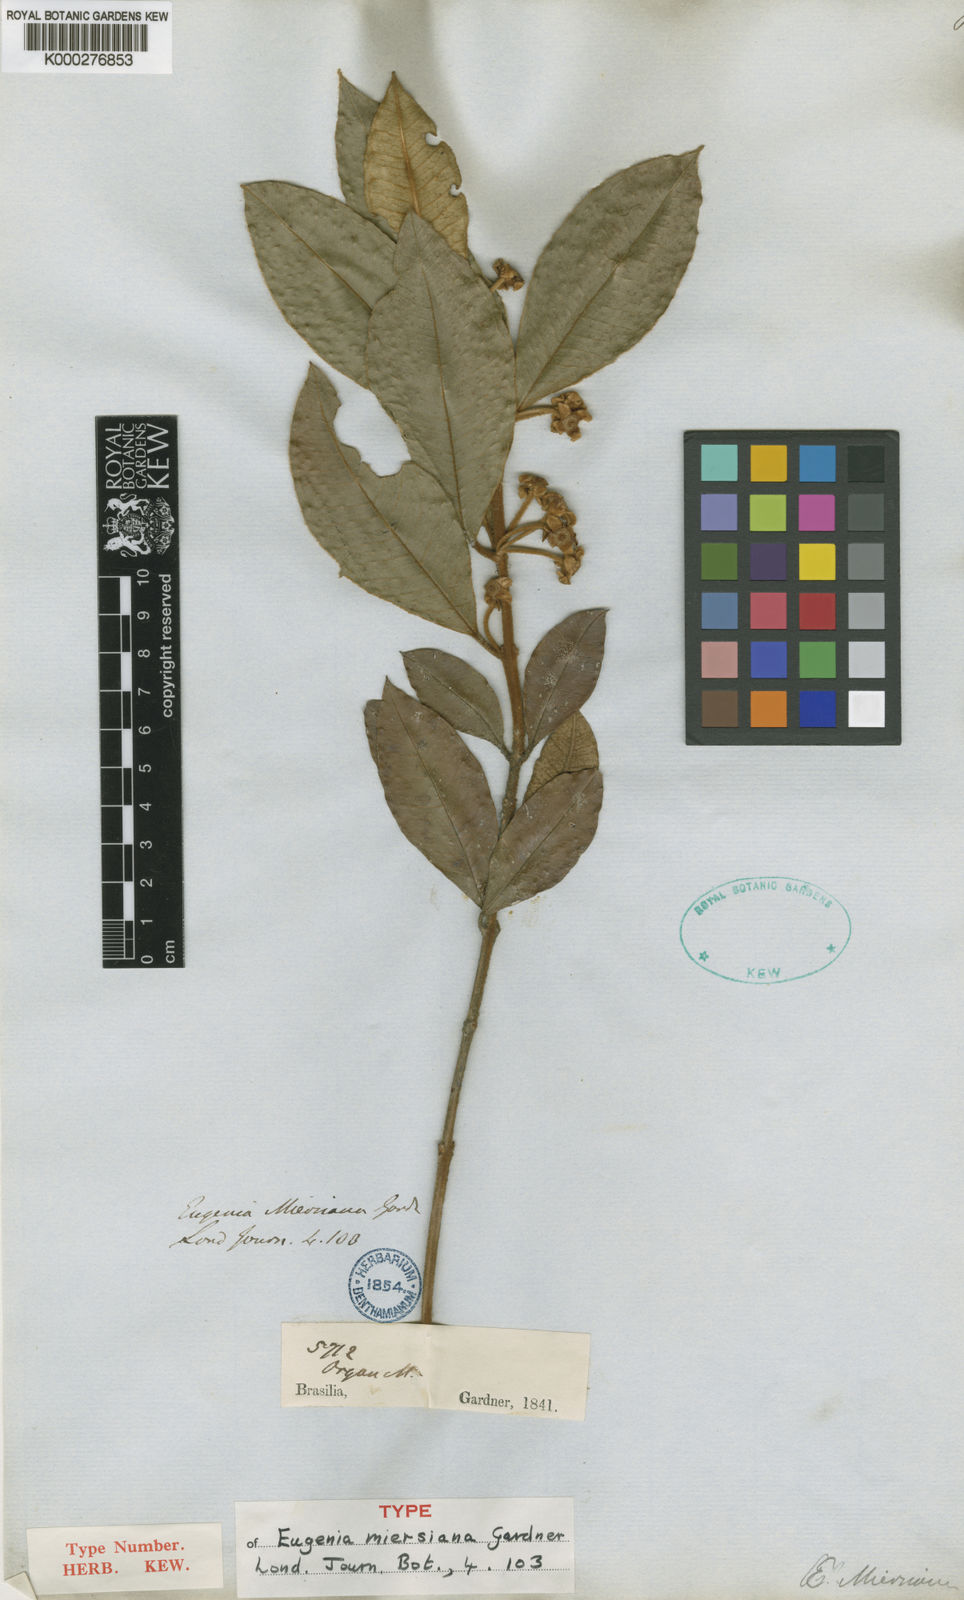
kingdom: Plantae
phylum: Tracheophyta
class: Magnoliopsida
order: Myrtales
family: Myrtaceae
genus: Myrceugenia
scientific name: Myrceugenia miersiana
